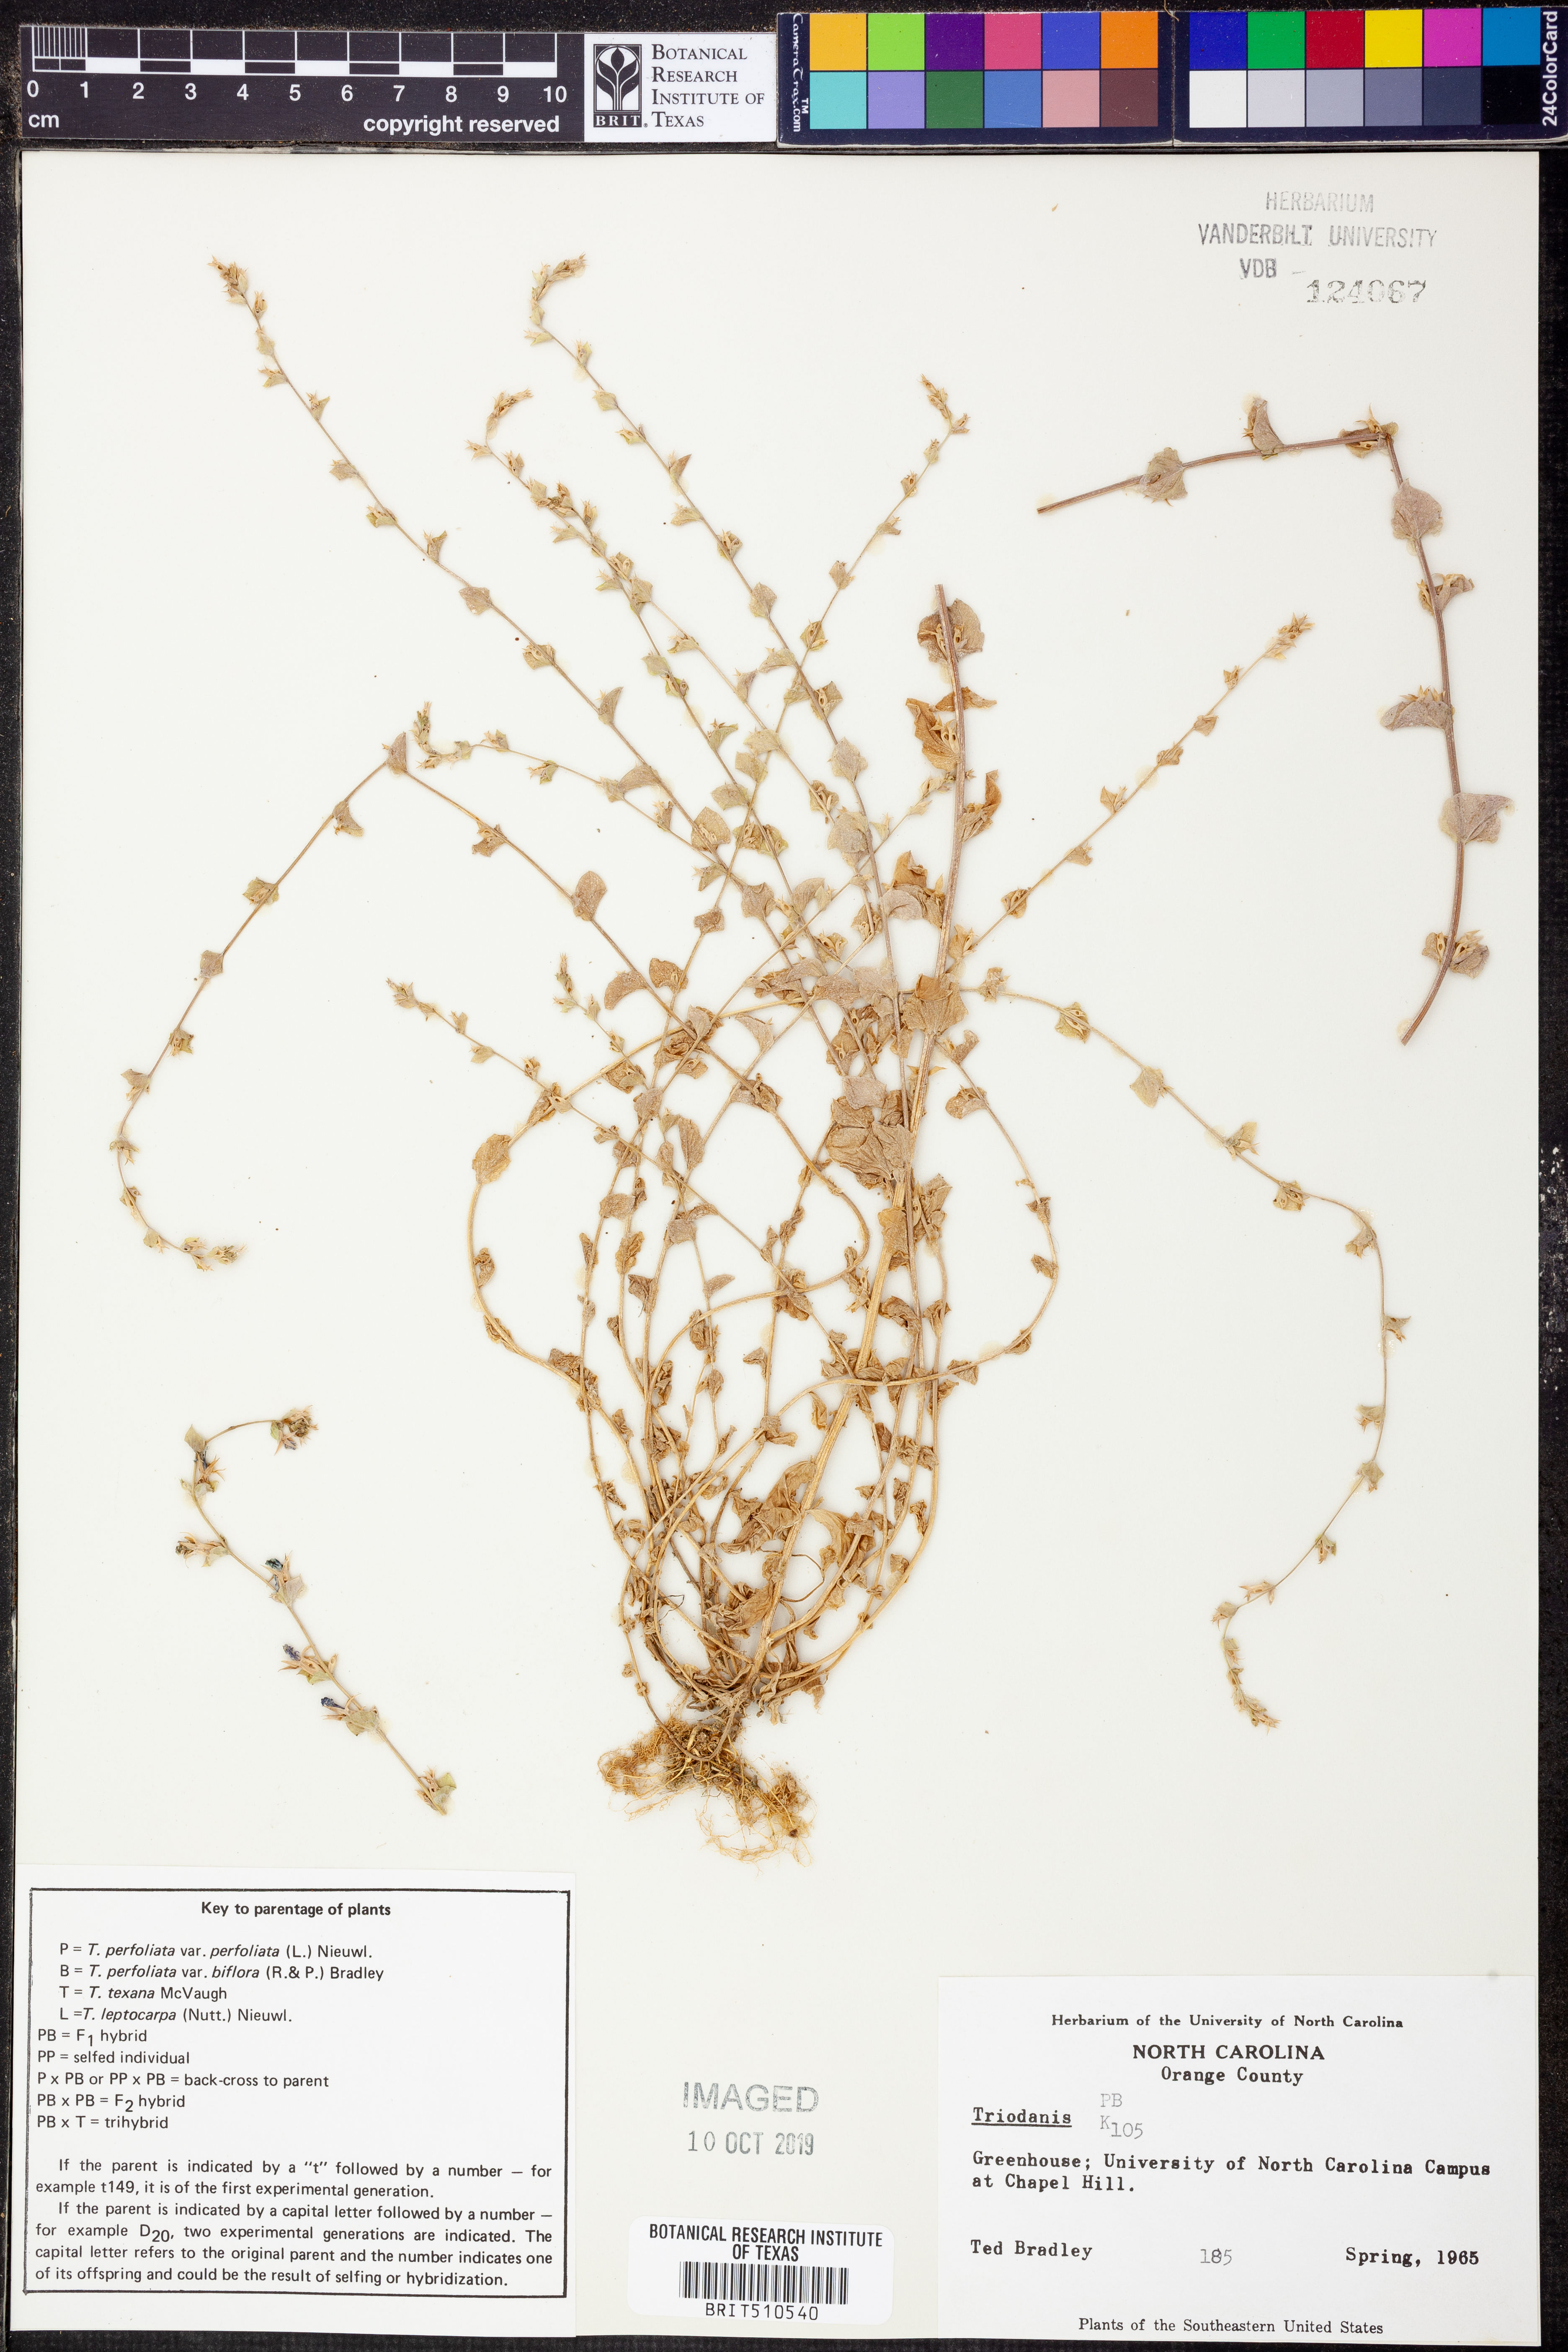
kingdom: Plantae
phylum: Tracheophyta
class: Magnoliopsida
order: Asterales
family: Campanulaceae
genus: Triodanis
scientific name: Triodanis
